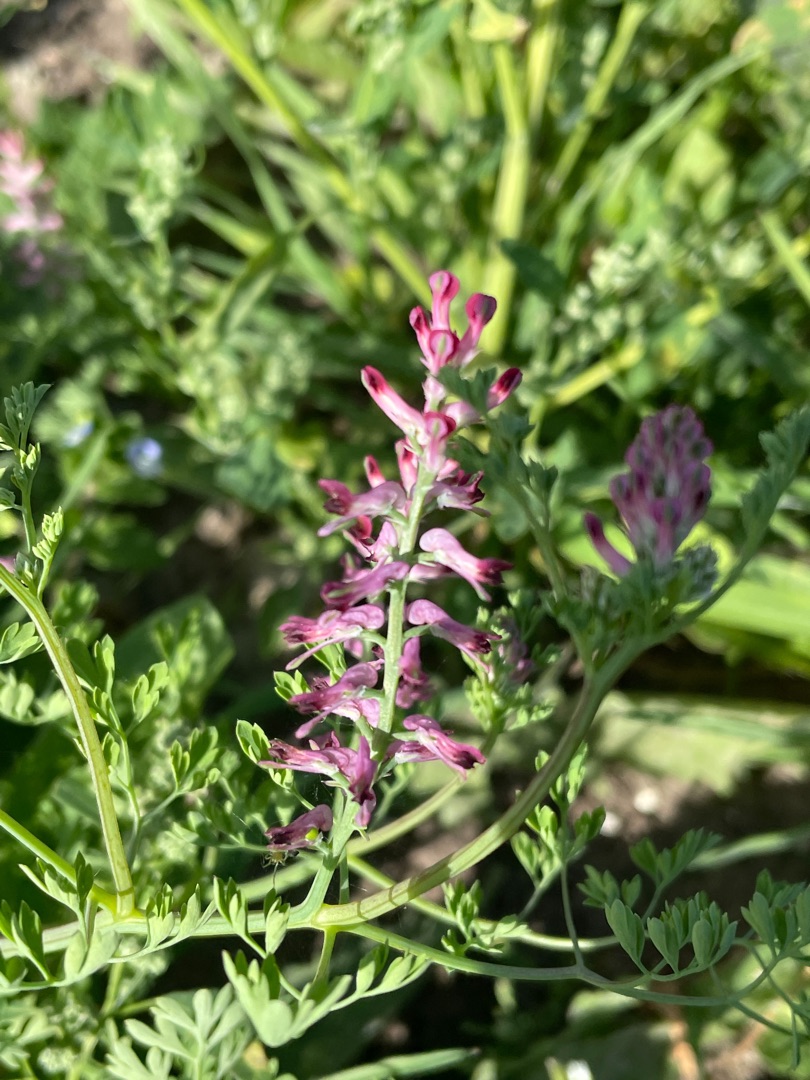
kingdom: Plantae
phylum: Tracheophyta
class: Magnoliopsida
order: Ranunculales
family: Papaveraceae
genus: Fumaria
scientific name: Fumaria officinalis
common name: Læge-jordrøg
